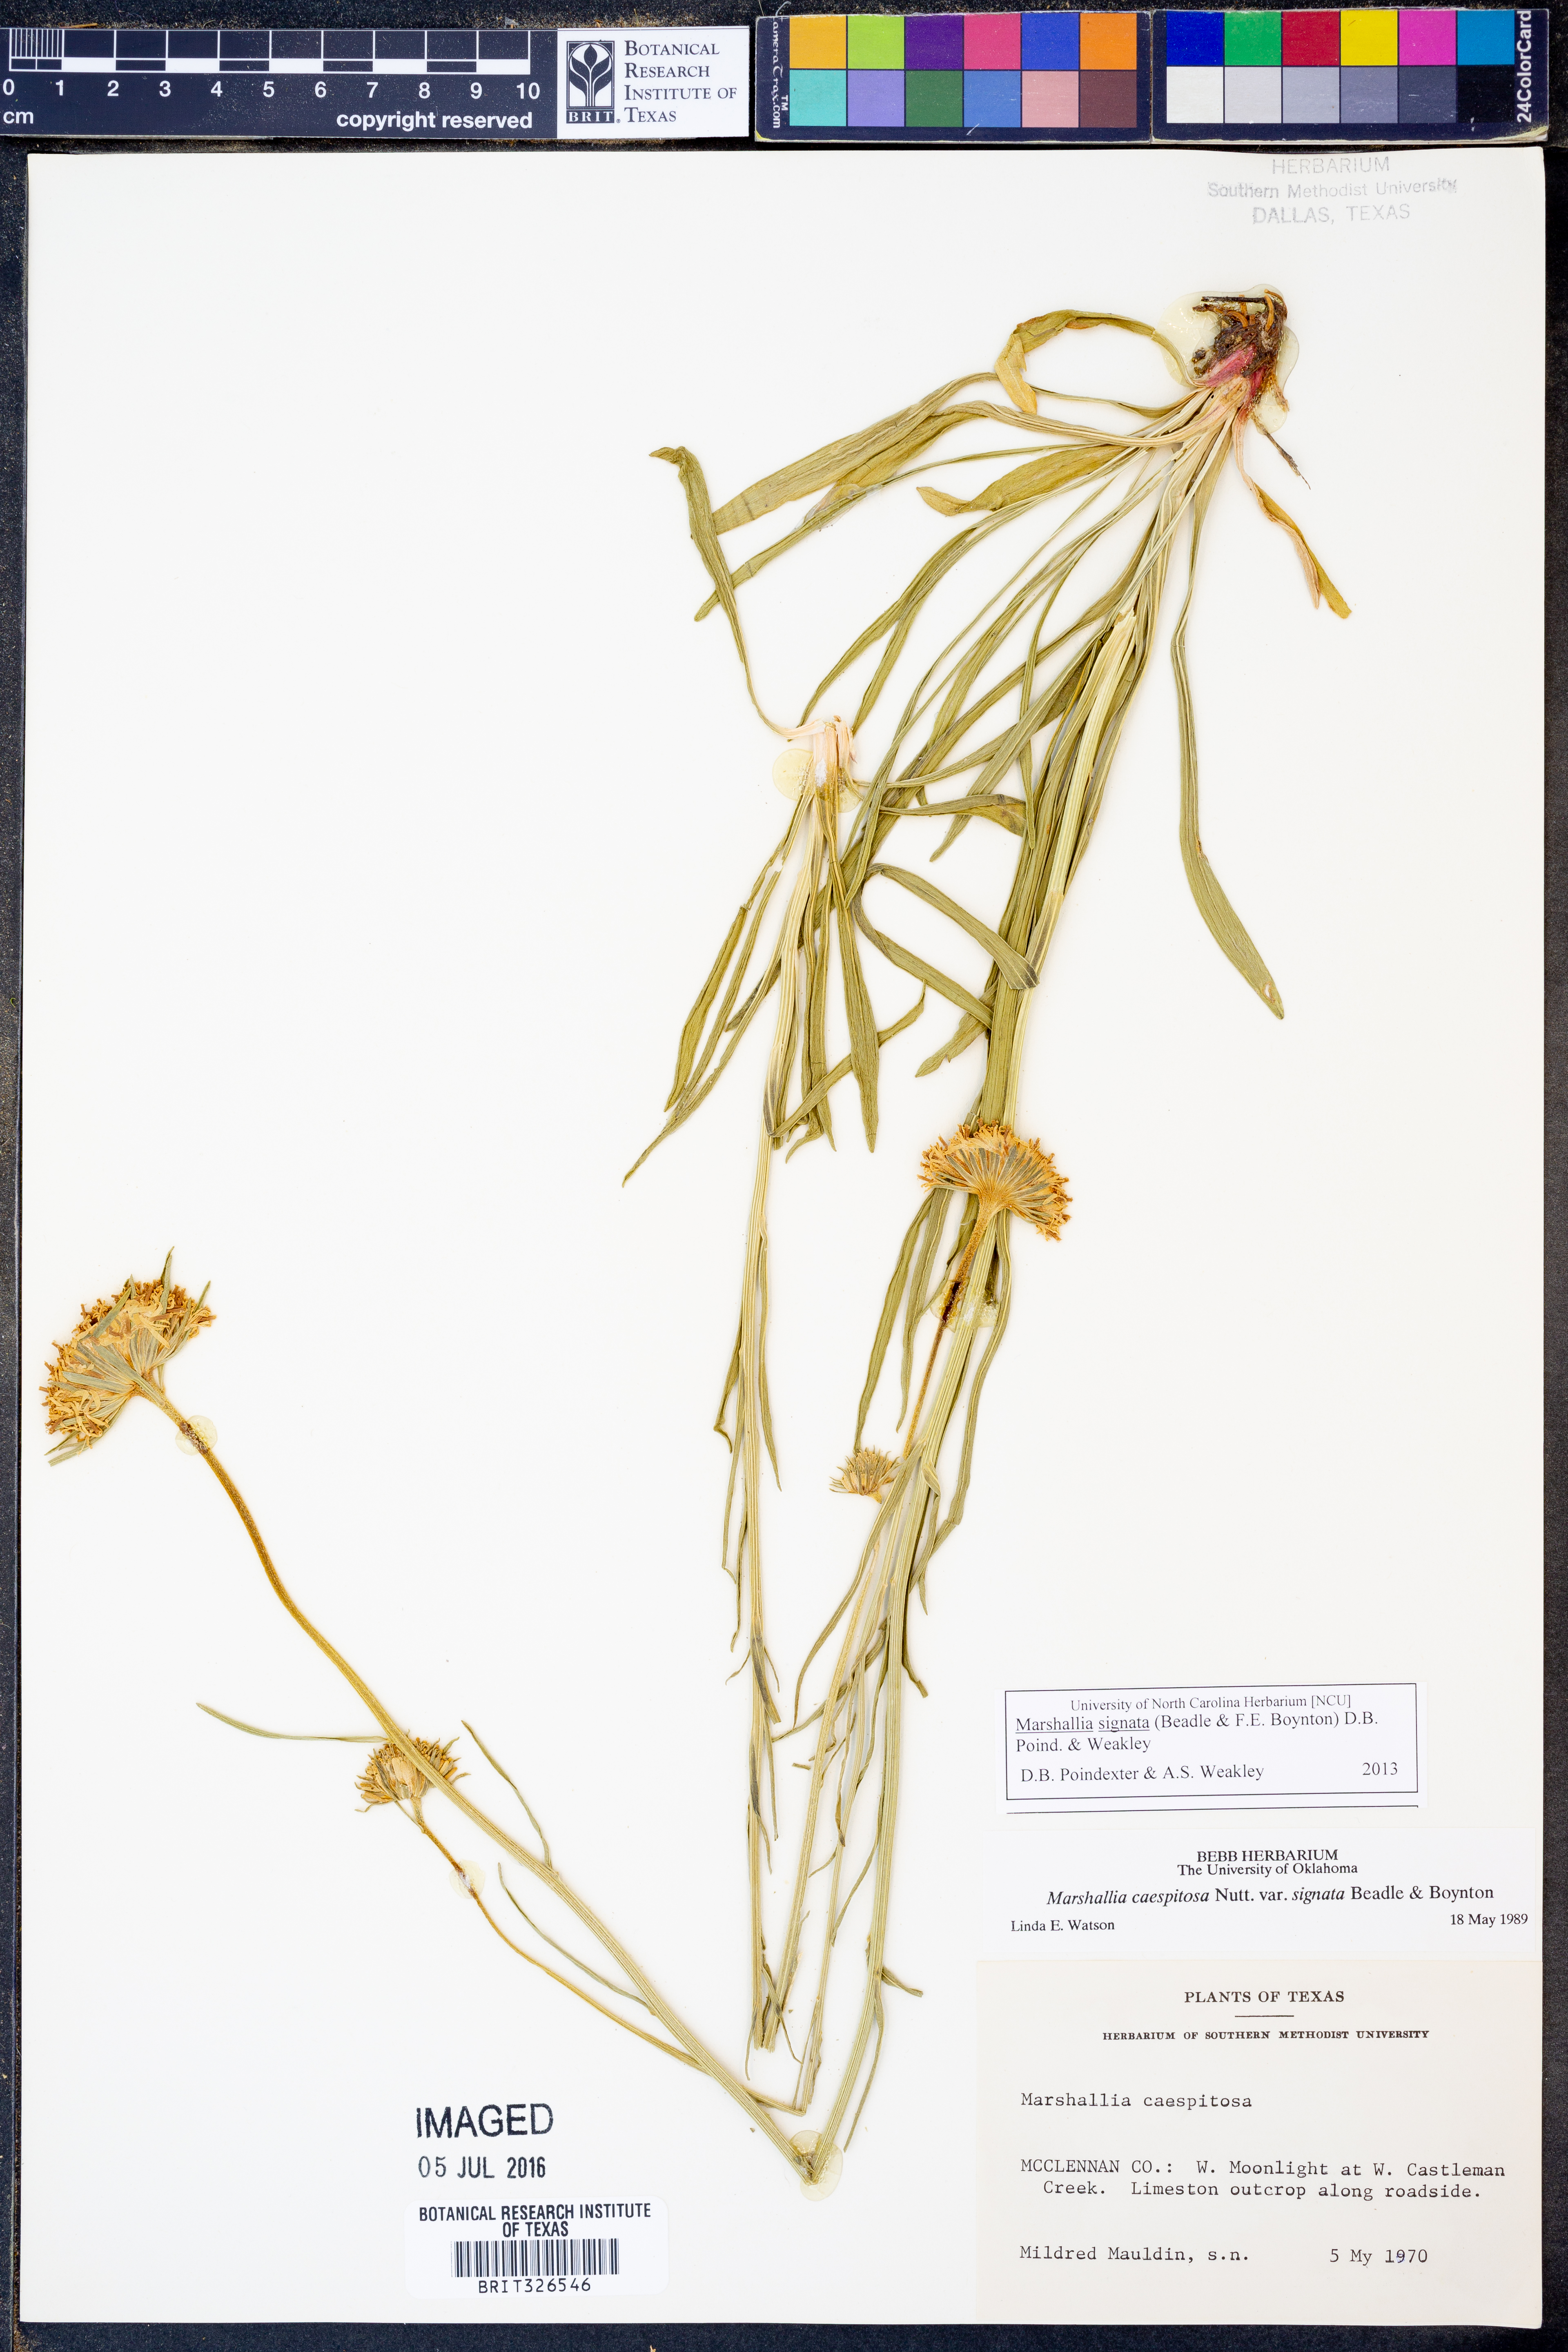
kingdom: Plantae
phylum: Tracheophyta
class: Magnoliopsida
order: Asterales
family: Asteraceae
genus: Marshallia
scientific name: Marshallia
